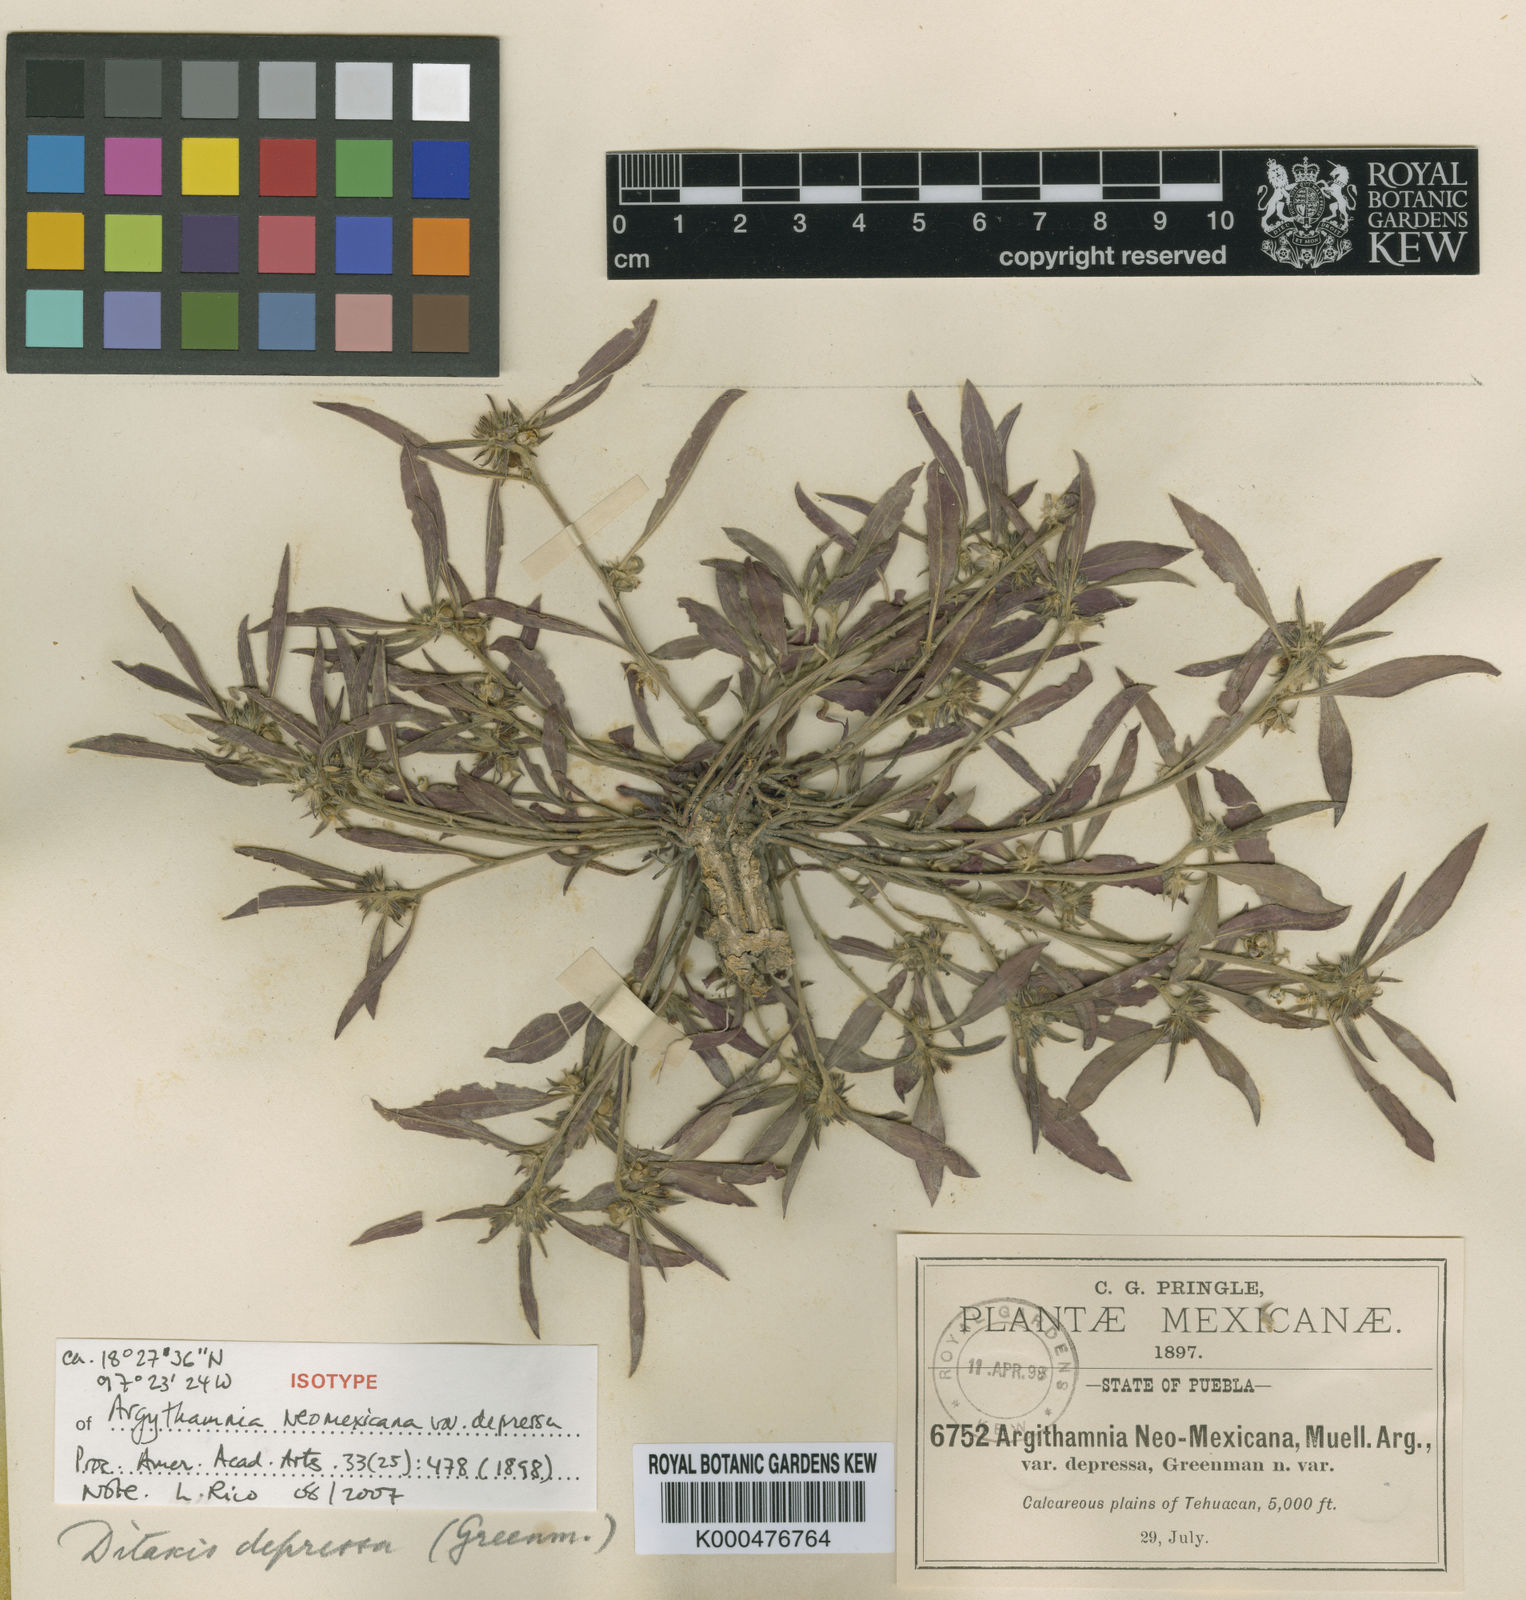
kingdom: Plantae
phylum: Tracheophyta
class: Magnoliopsida
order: Malpighiales
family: Euphorbiaceae
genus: Ditaxis
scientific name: Ditaxis depressa
